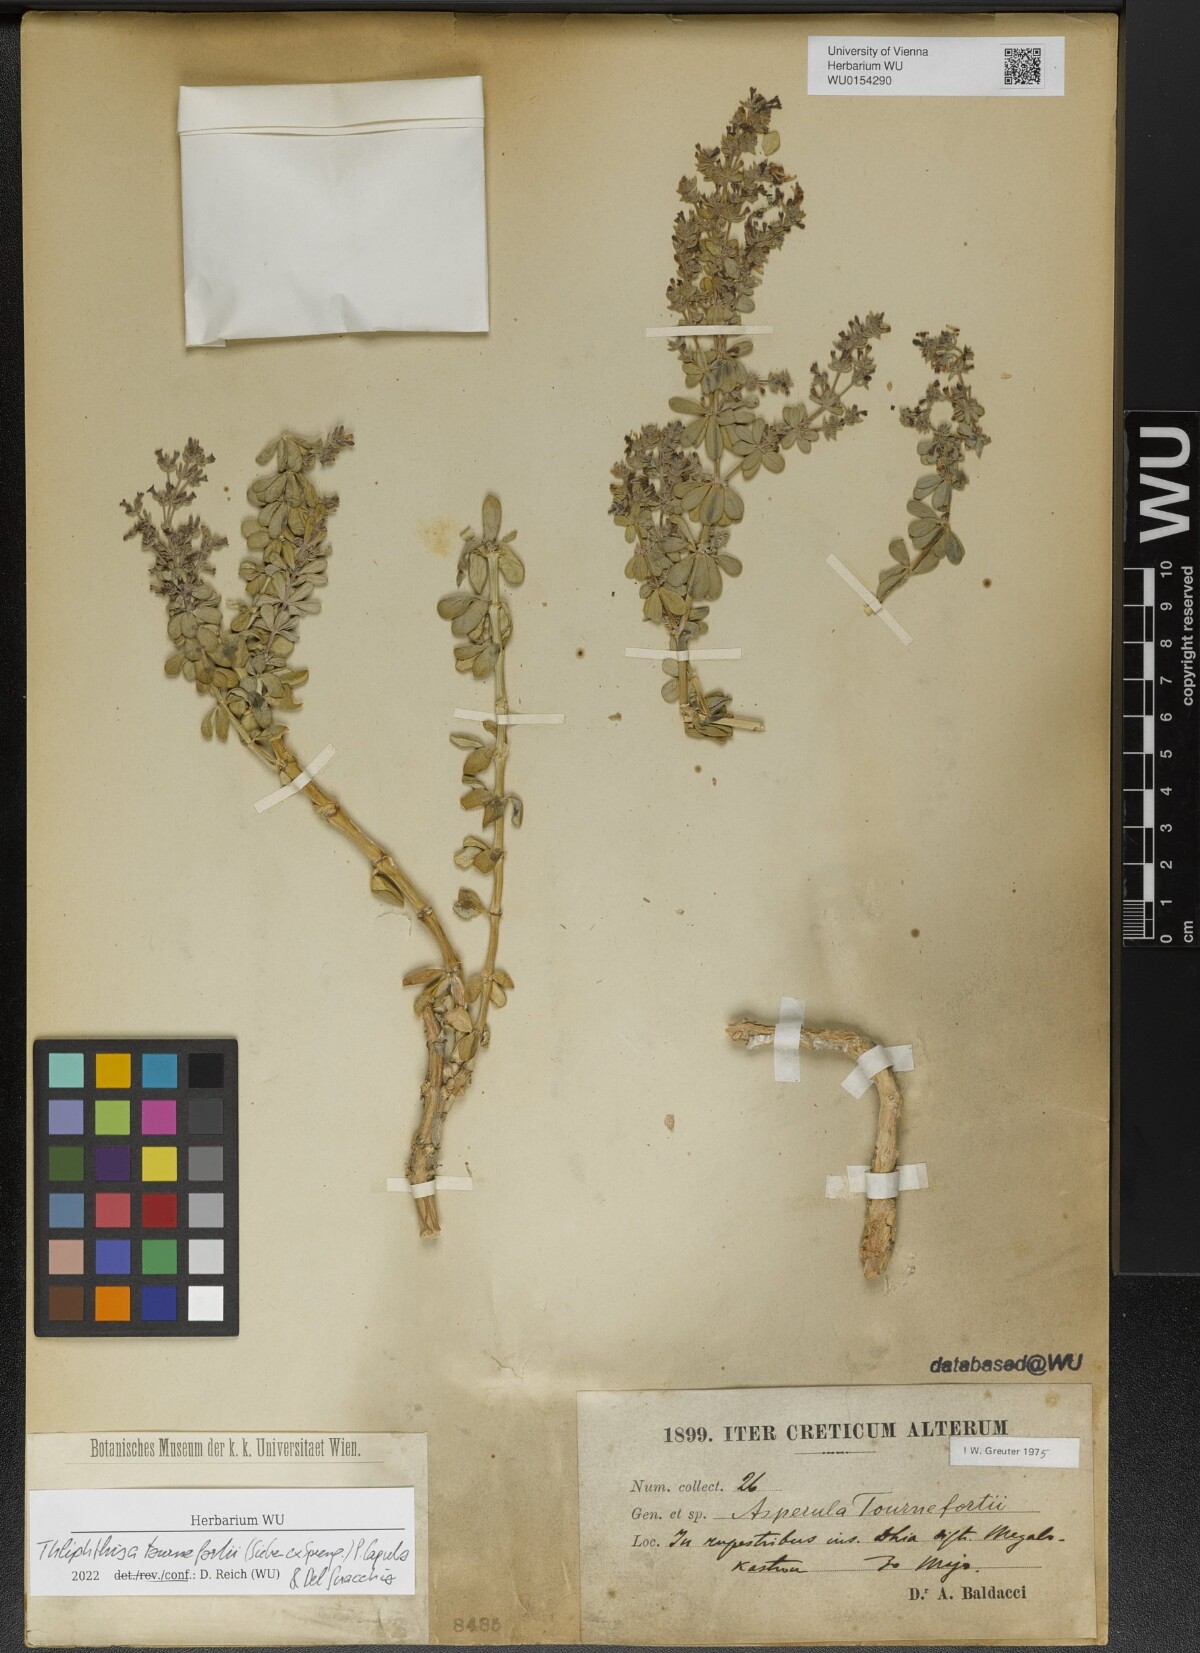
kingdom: Plantae
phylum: Tracheophyta
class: Magnoliopsida
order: Gentianales
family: Rubiaceae
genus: Thliphthisa
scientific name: Thliphthisa tournefortii
